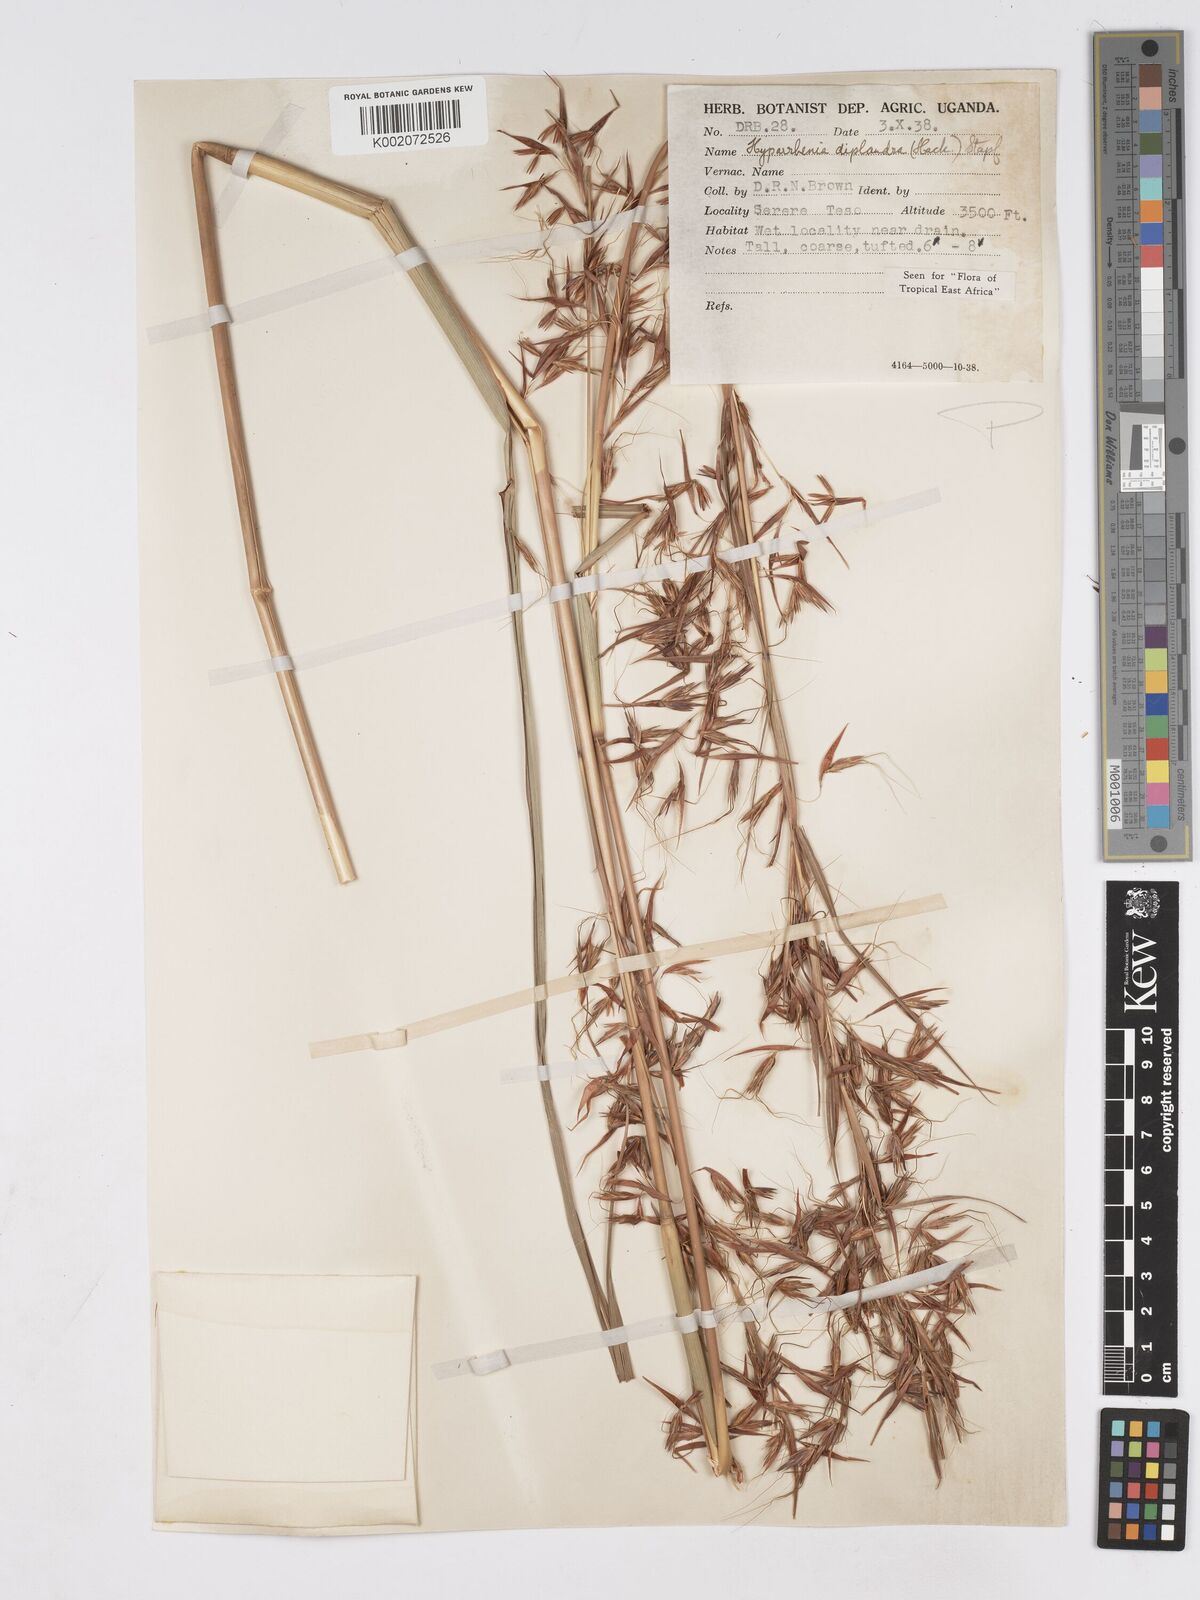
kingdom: Plantae
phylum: Tracheophyta
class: Liliopsida
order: Poales
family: Poaceae
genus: Hyparrhenia
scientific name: Hyparrhenia
